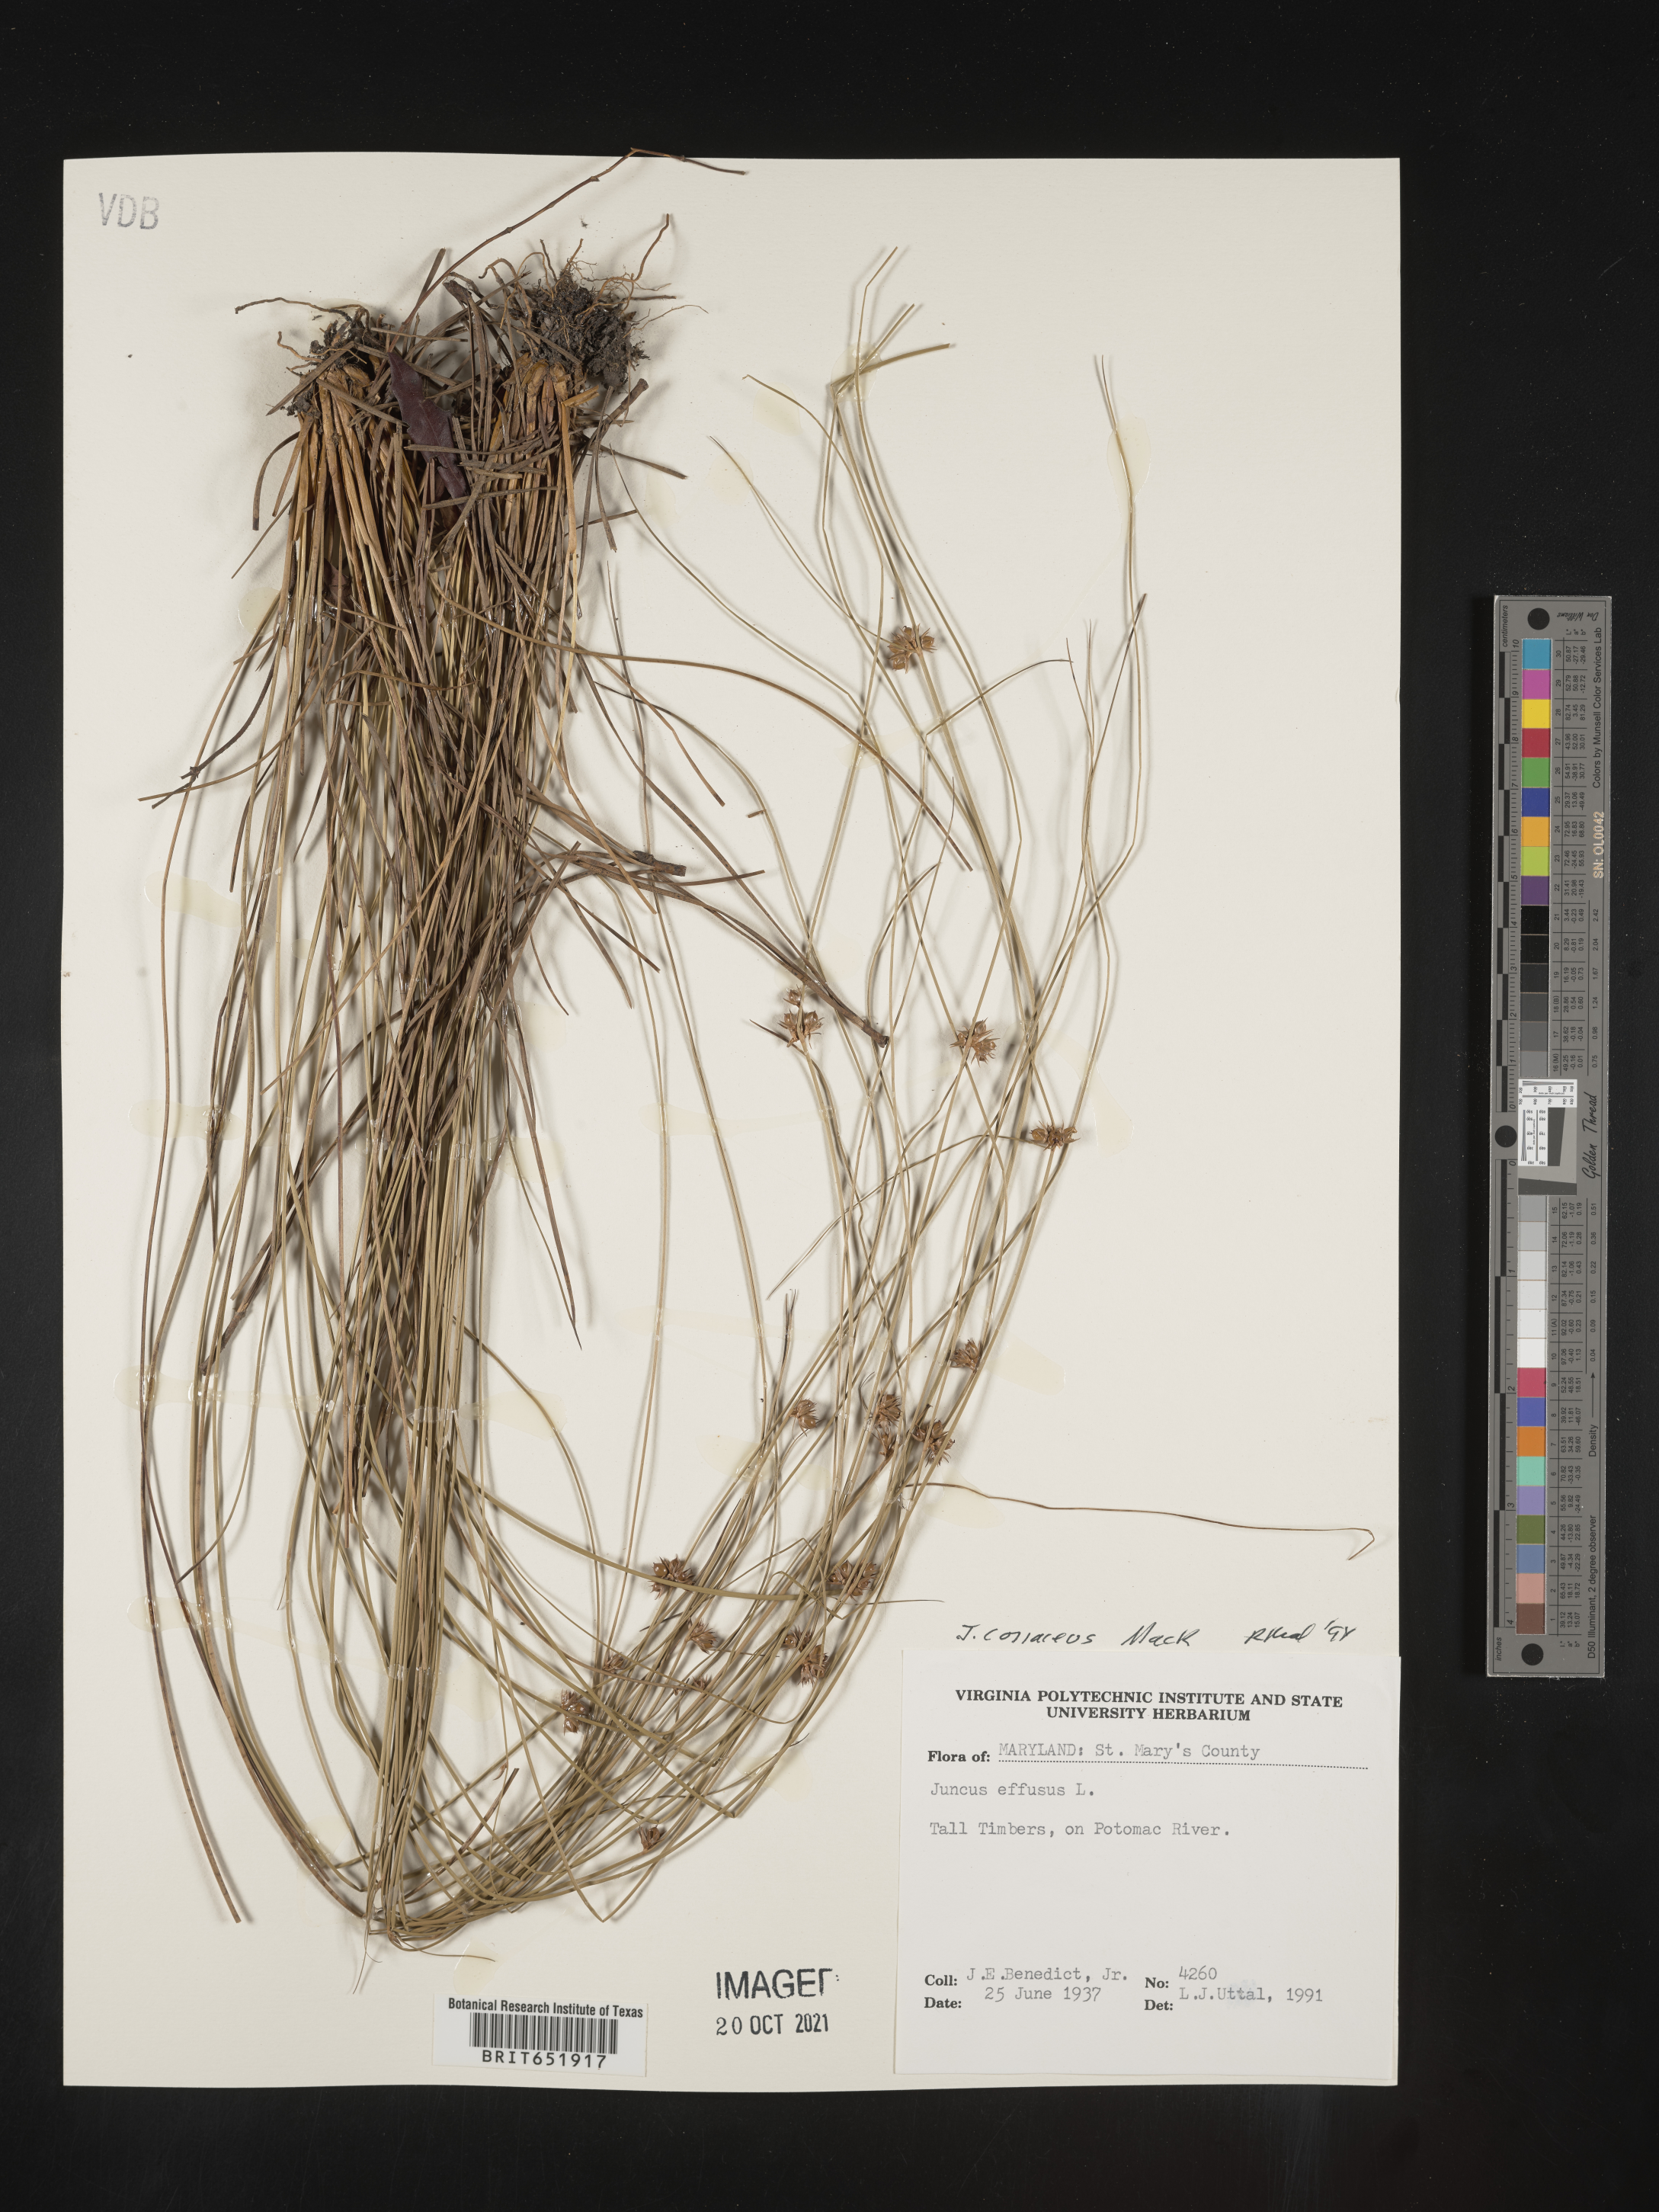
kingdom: Plantae
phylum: Tracheophyta
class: Liliopsida
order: Poales
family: Juncaceae
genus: Juncus
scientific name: Juncus coriaceus
